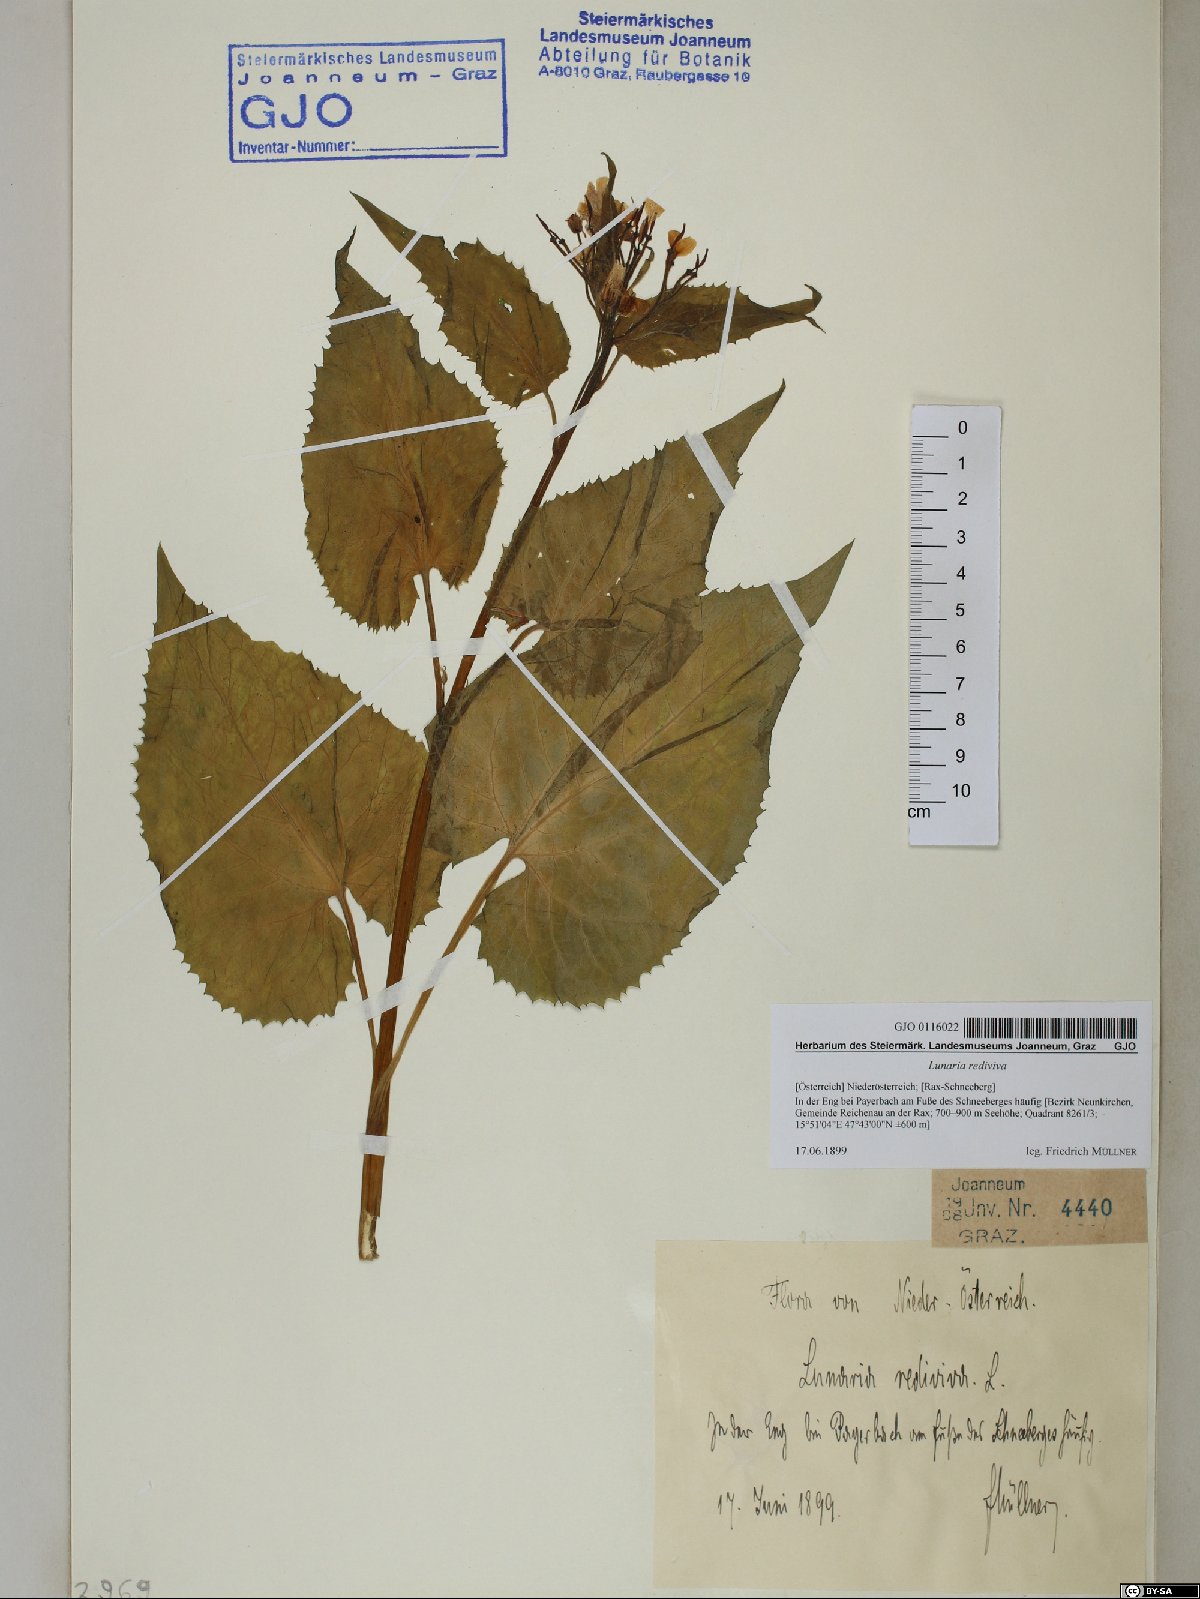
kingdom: Plantae
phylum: Tracheophyta
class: Magnoliopsida
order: Brassicales
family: Brassicaceae
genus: Lunaria
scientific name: Lunaria rediviva
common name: Perennial honesty
